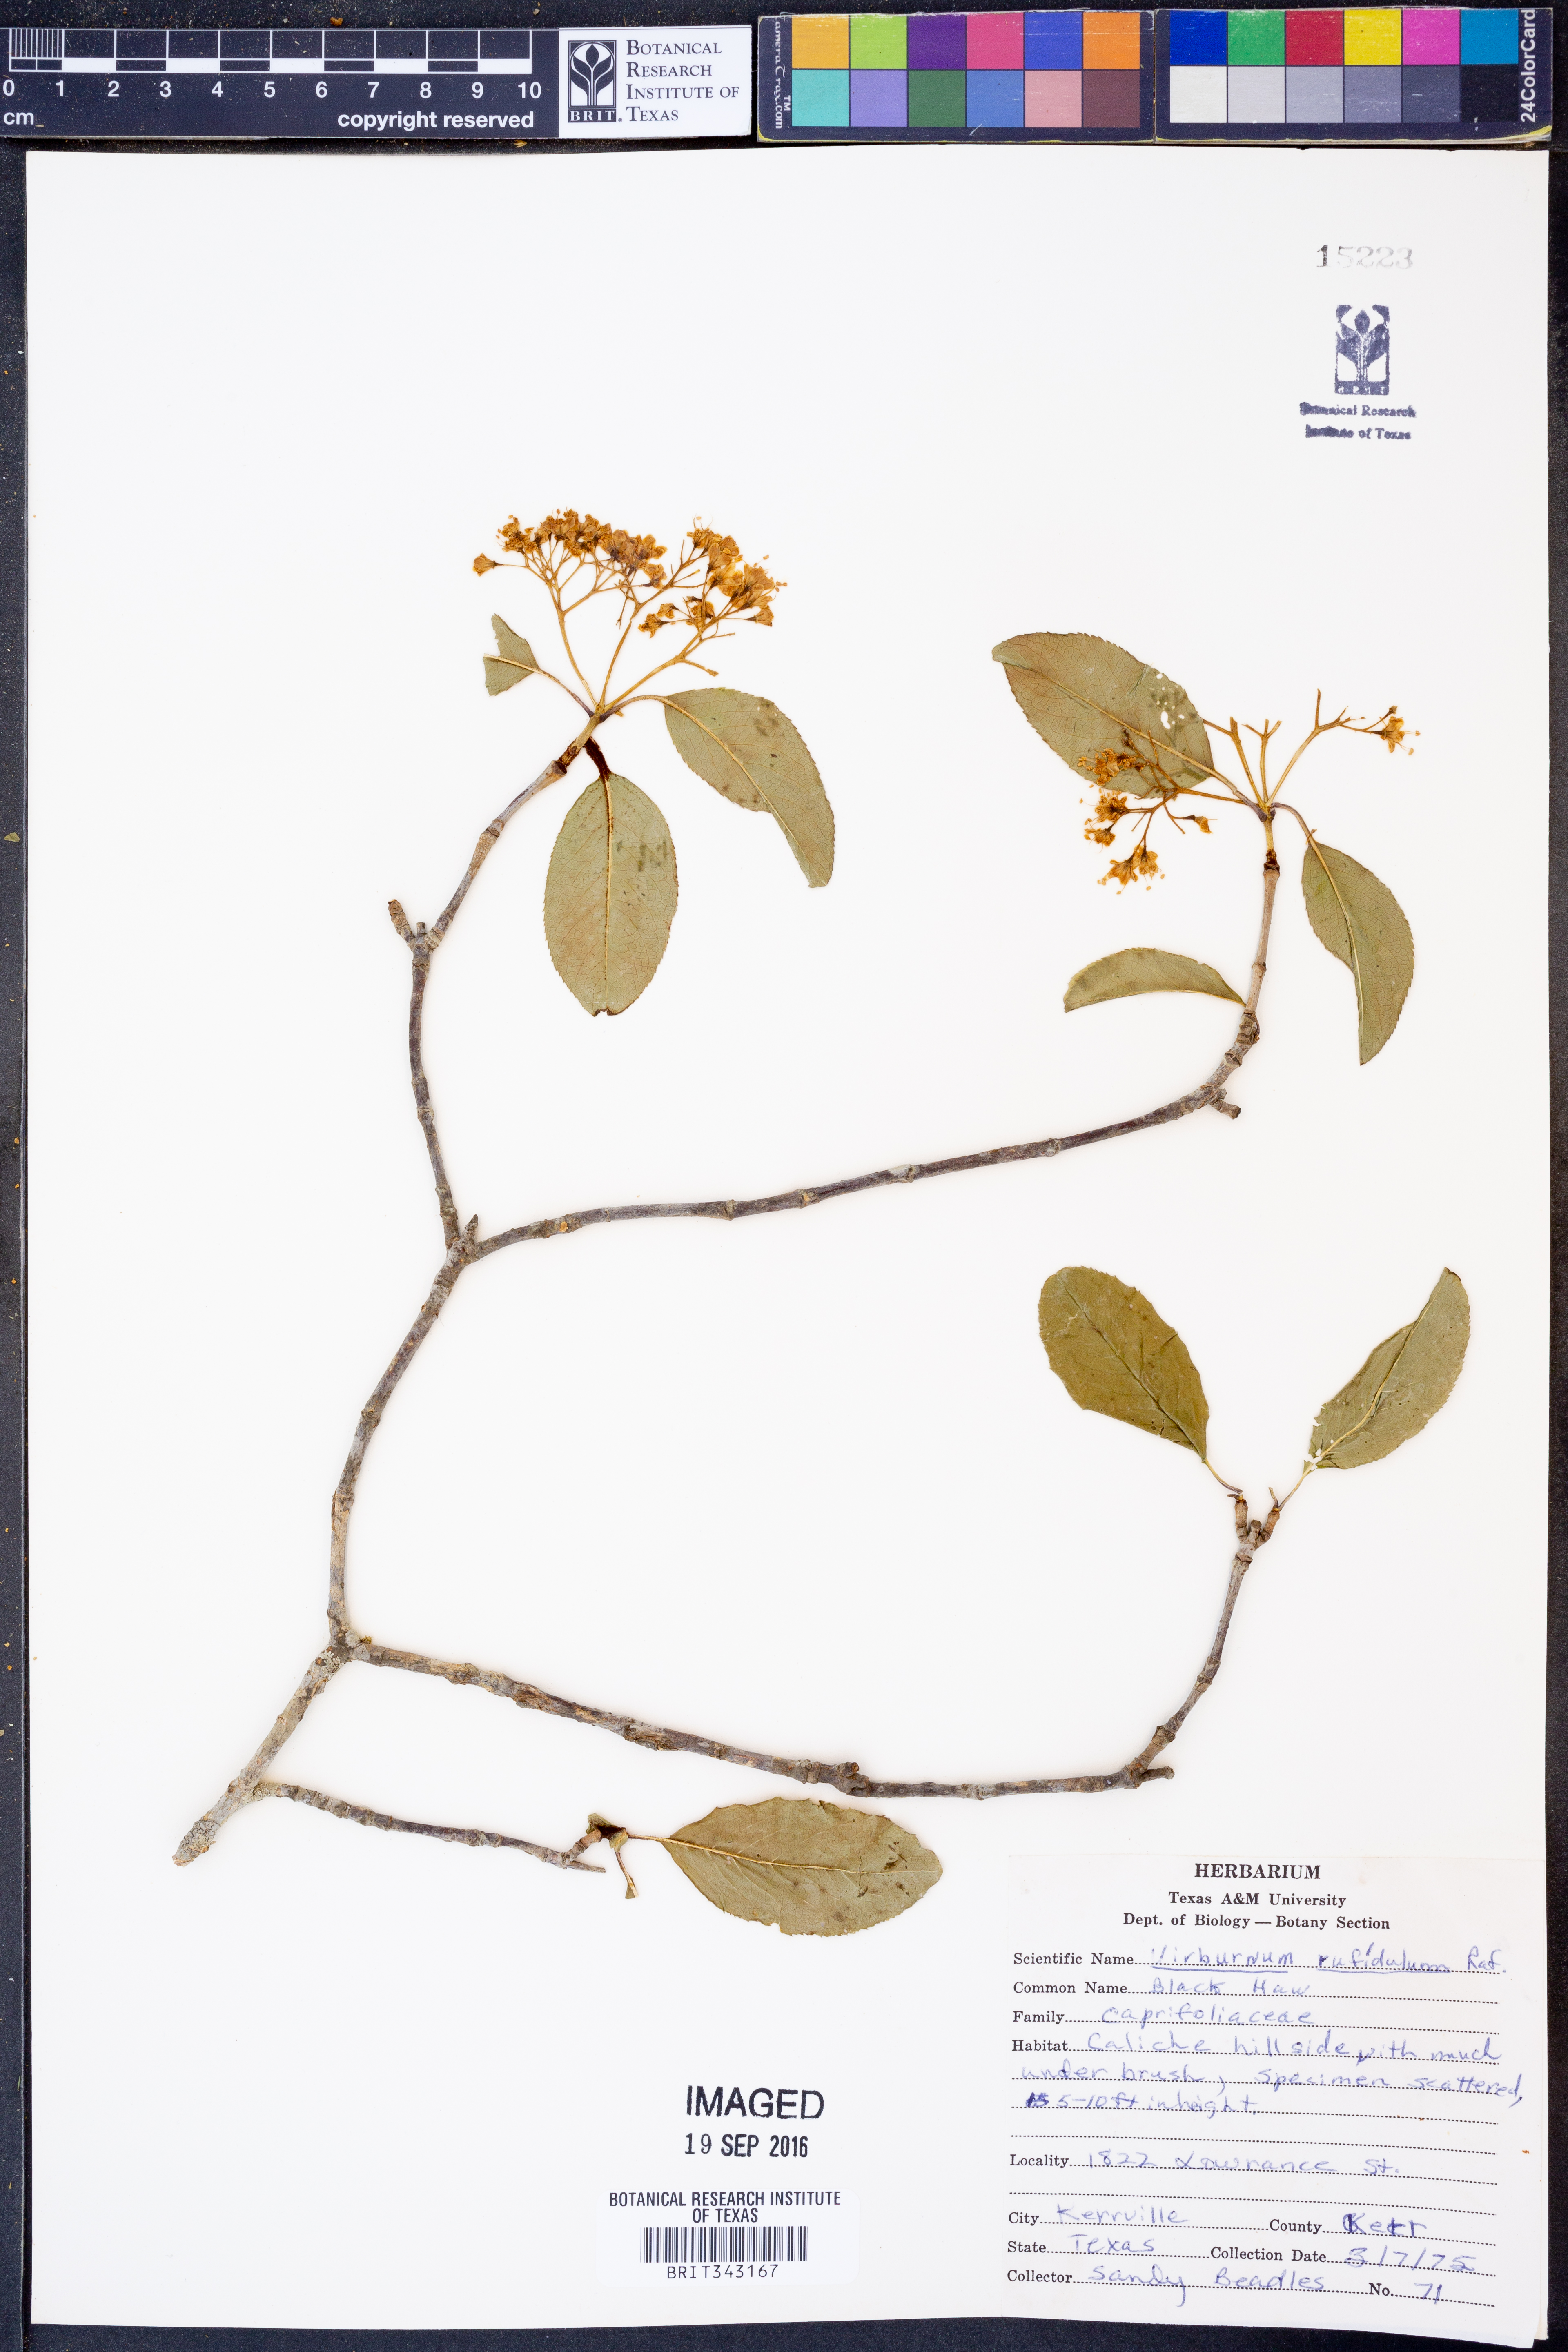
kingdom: Plantae
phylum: Tracheophyta
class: Magnoliopsida
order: Dipsacales
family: Viburnaceae
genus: Viburnum
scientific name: Viburnum rufidulum
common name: Blue haw
